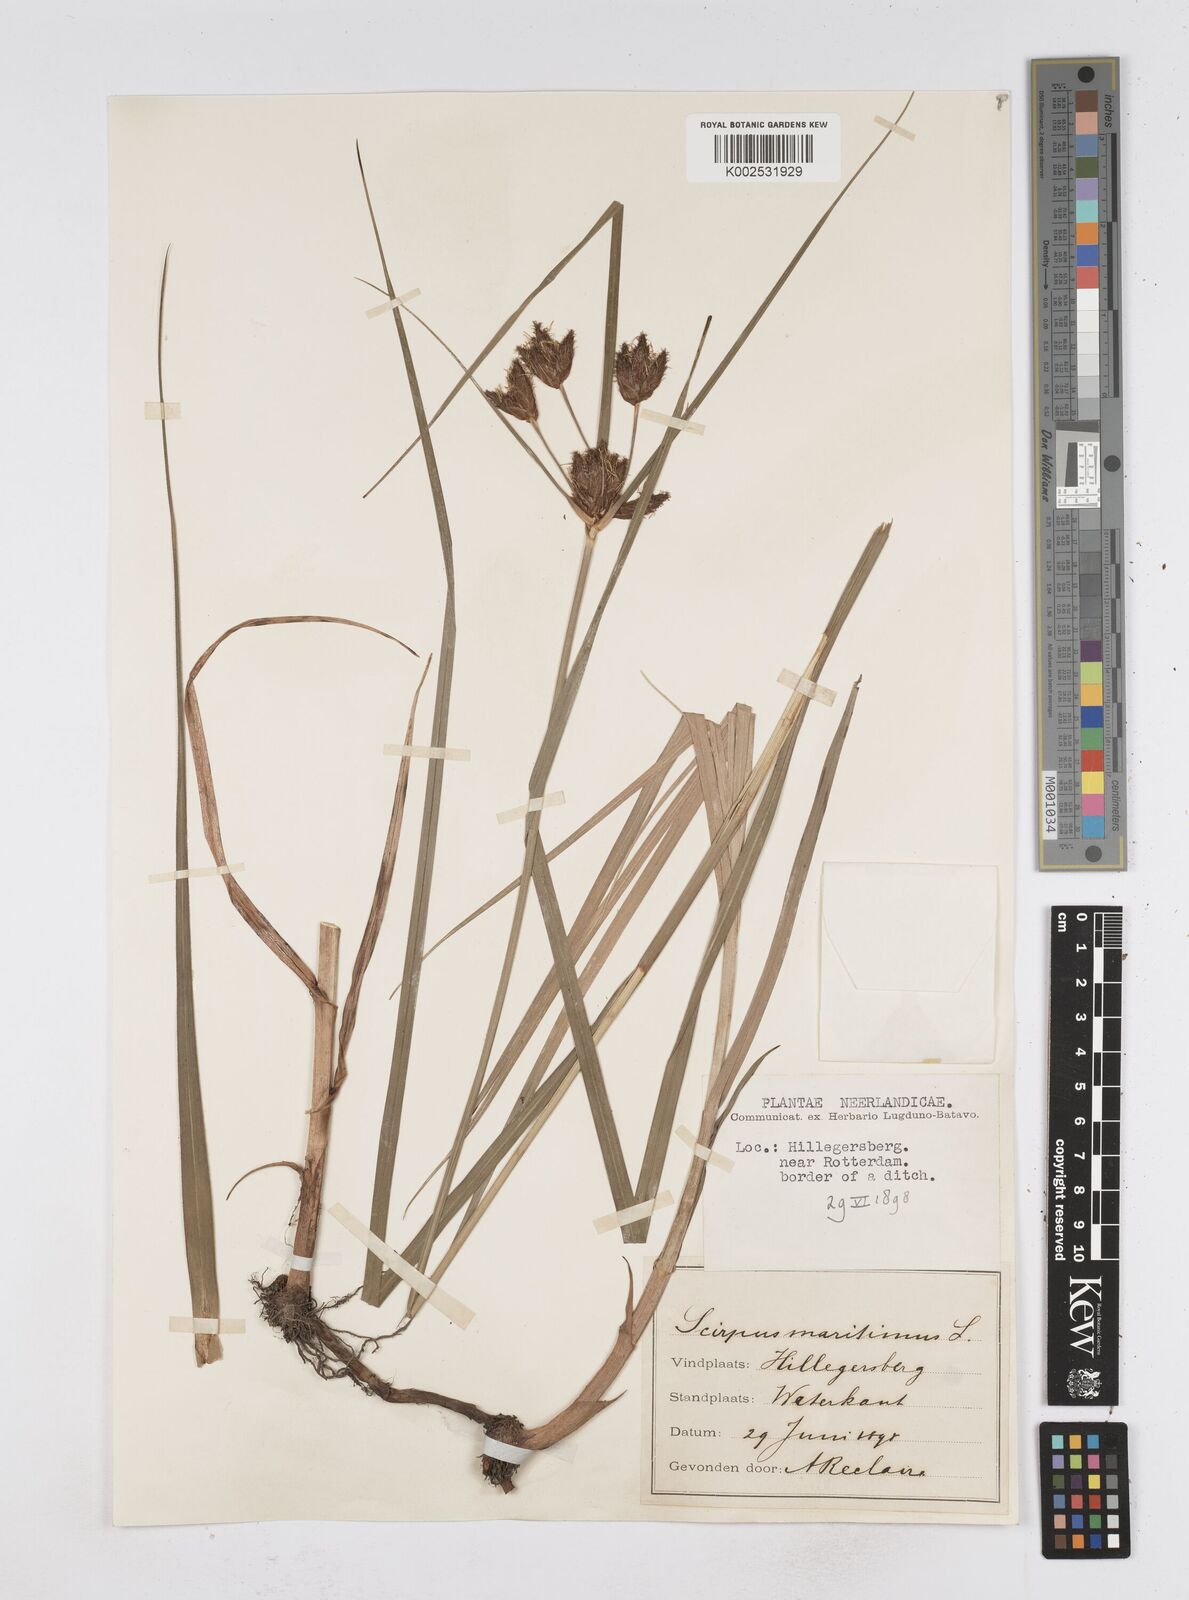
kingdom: Plantae
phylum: Tracheophyta
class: Liliopsida
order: Poales
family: Cyperaceae
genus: Bolboschoenus
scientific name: Bolboschoenus maritimus
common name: Sea club-rush
